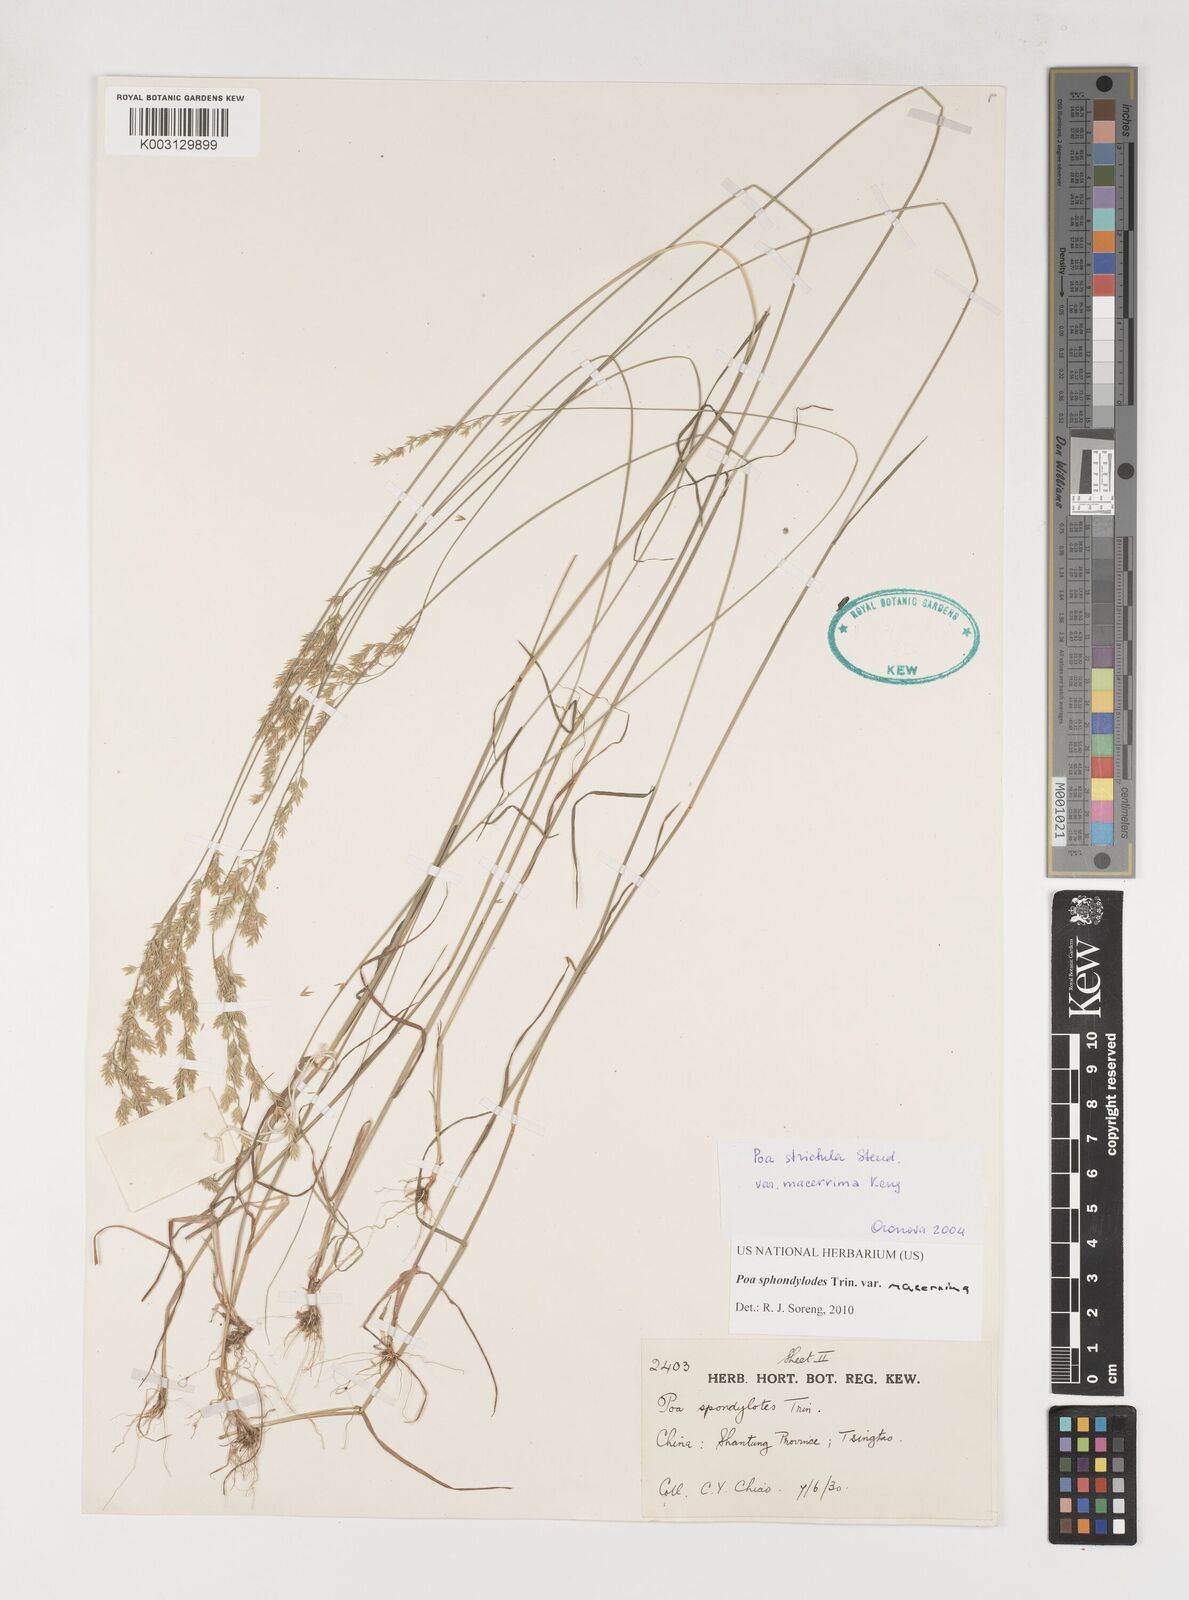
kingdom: Plantae
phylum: Tracheophyta
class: Liliopsida
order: Poales
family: Poaceae
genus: Poa
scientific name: Poa sphondylodes
